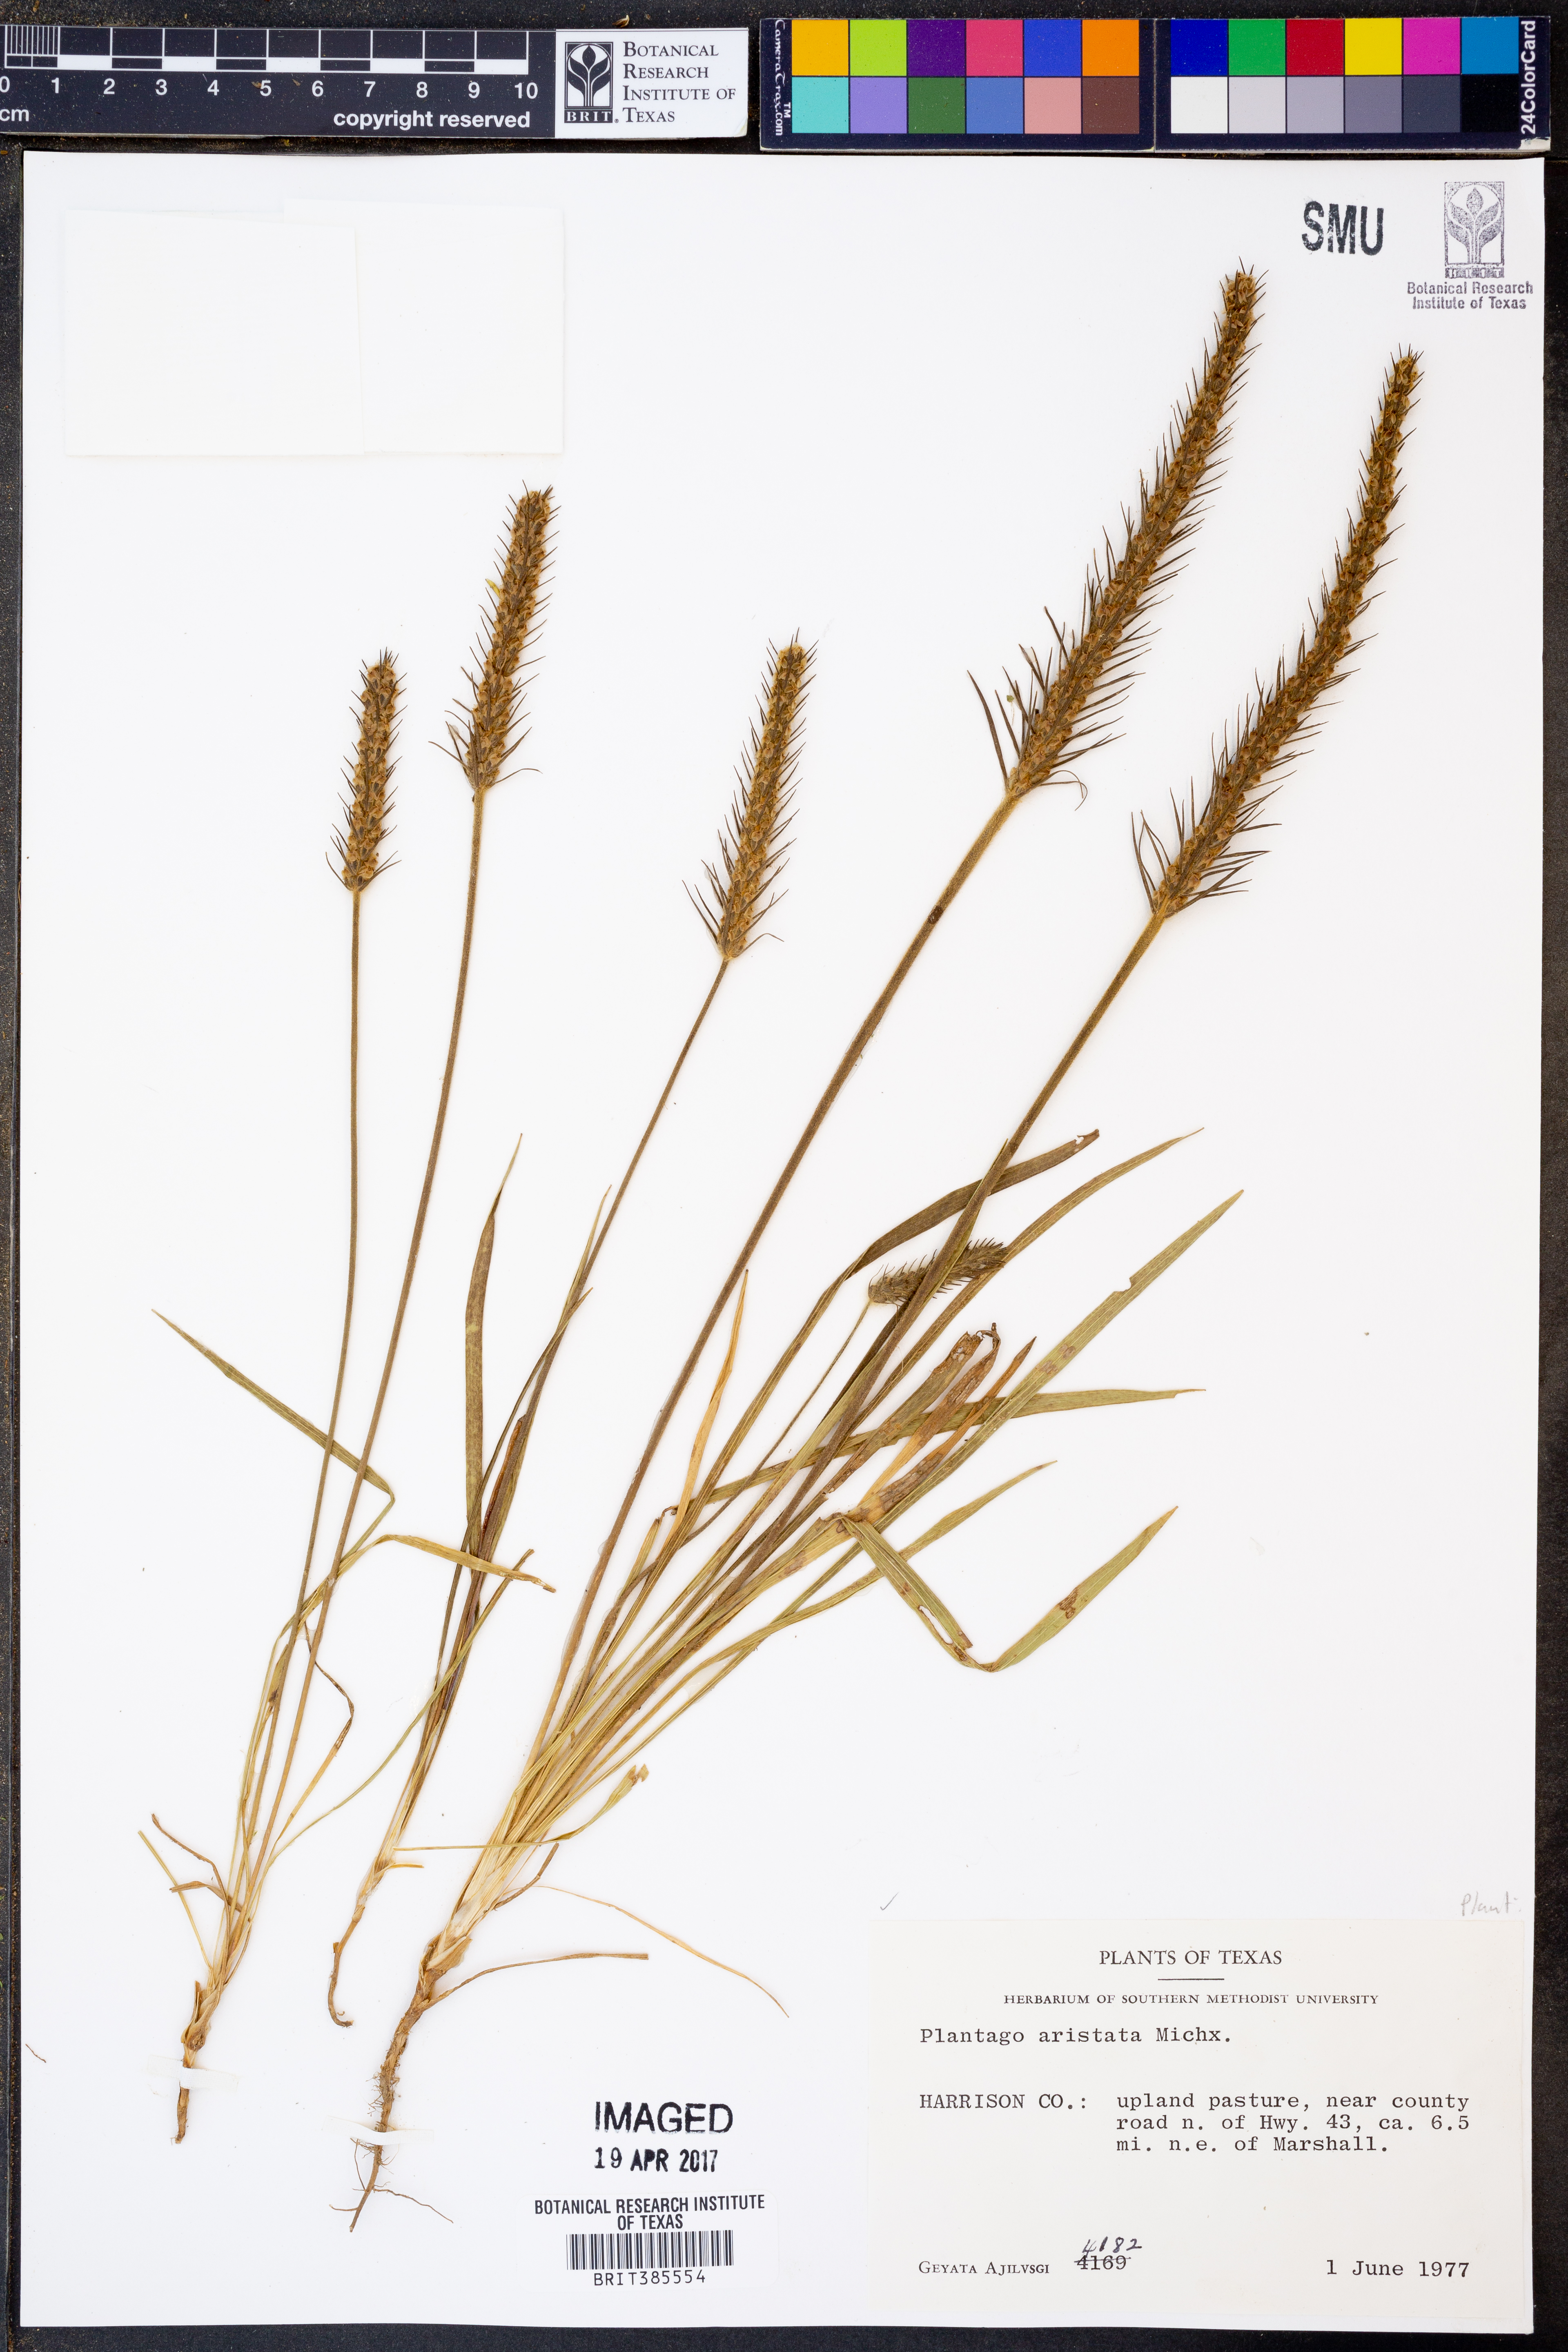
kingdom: Plantae
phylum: Tracheophyta
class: Magnoliopsida
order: Lamiales
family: Plantaginaceae
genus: Plantago
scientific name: Plantago aristata
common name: Bracted plantain
